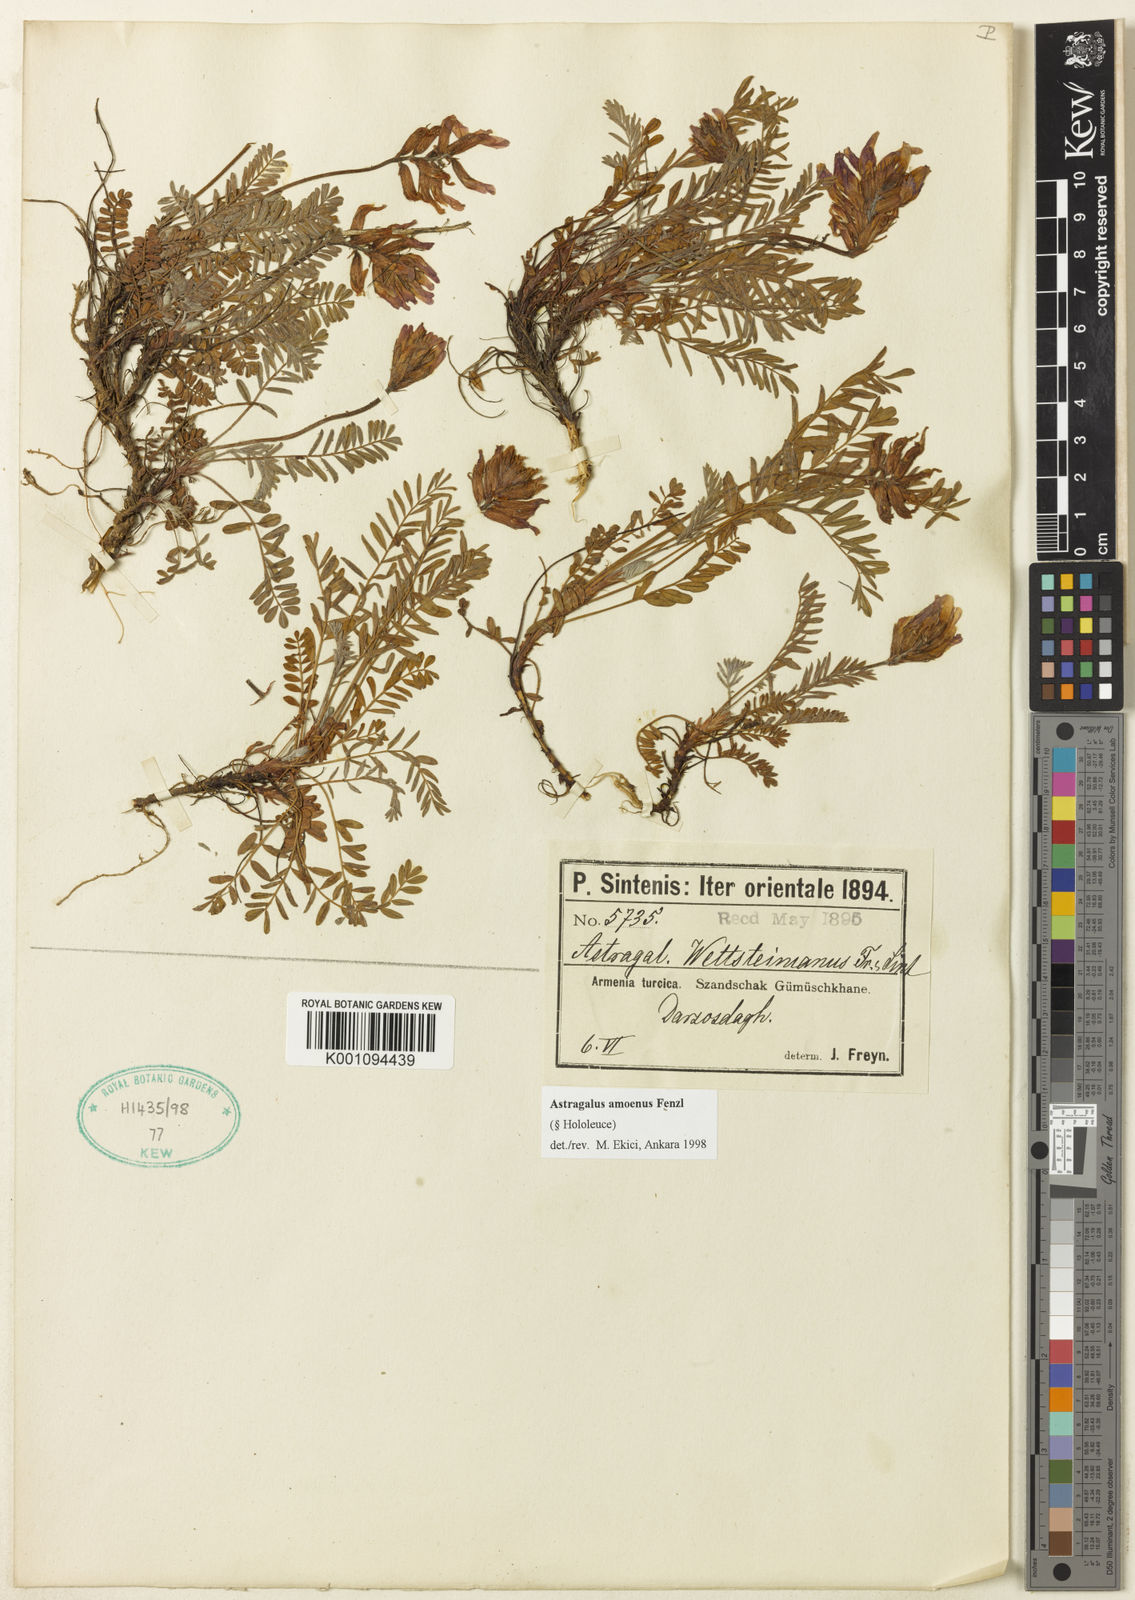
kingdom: Plantae
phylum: Tracheophyta
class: Magnoliopsida
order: Fabales
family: Fabaceae
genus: Astragalus
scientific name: Astragalus
